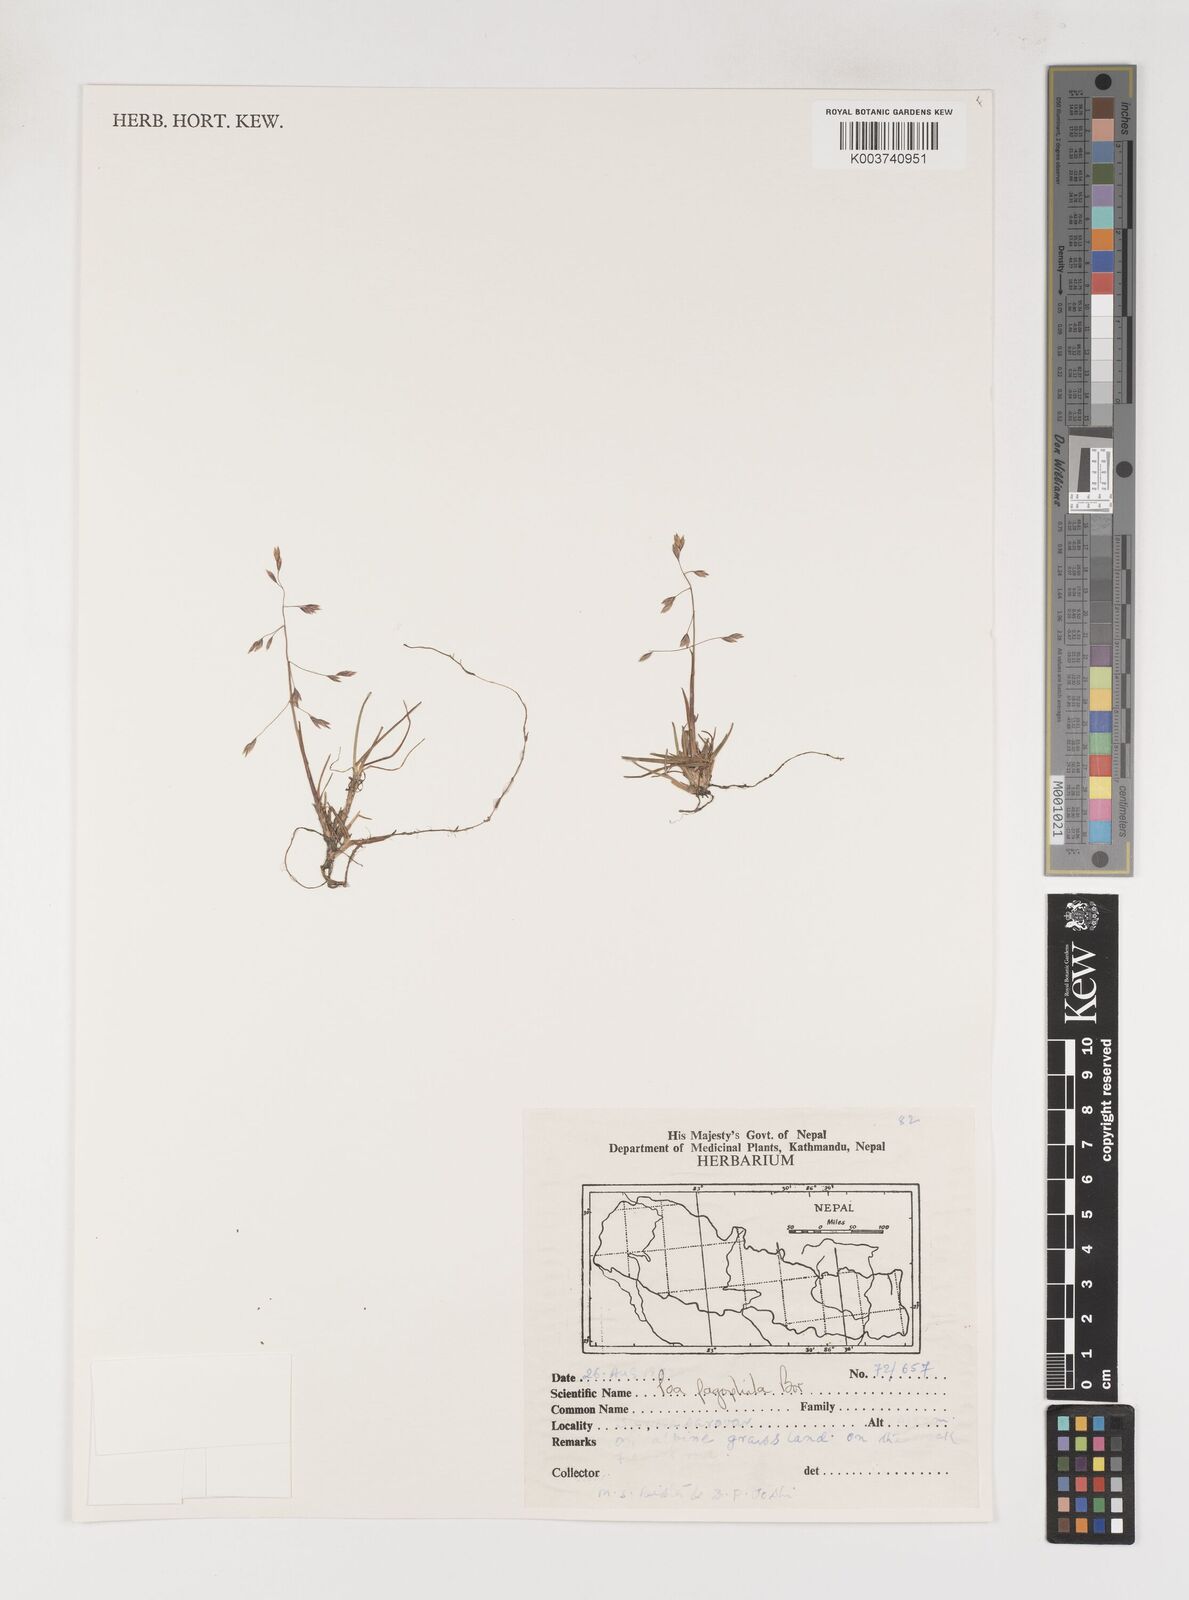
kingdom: Plantae
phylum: Tracheophyta
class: Liliopsida
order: Poales
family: Poaceae
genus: Poa
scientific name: Poa pagophila
